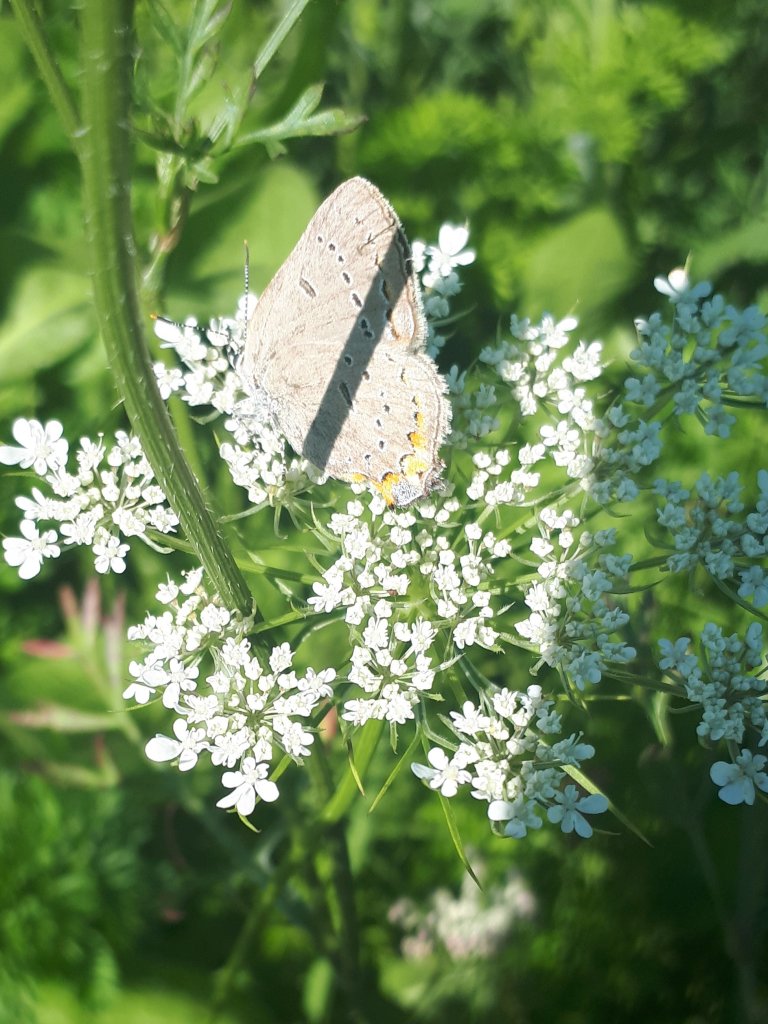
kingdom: Animalia
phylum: Arthropoda
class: Insecta
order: Lepidoptera
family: Lycaenidae
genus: Strymon
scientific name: Strymon acadica
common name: Acadian Hairstreak
